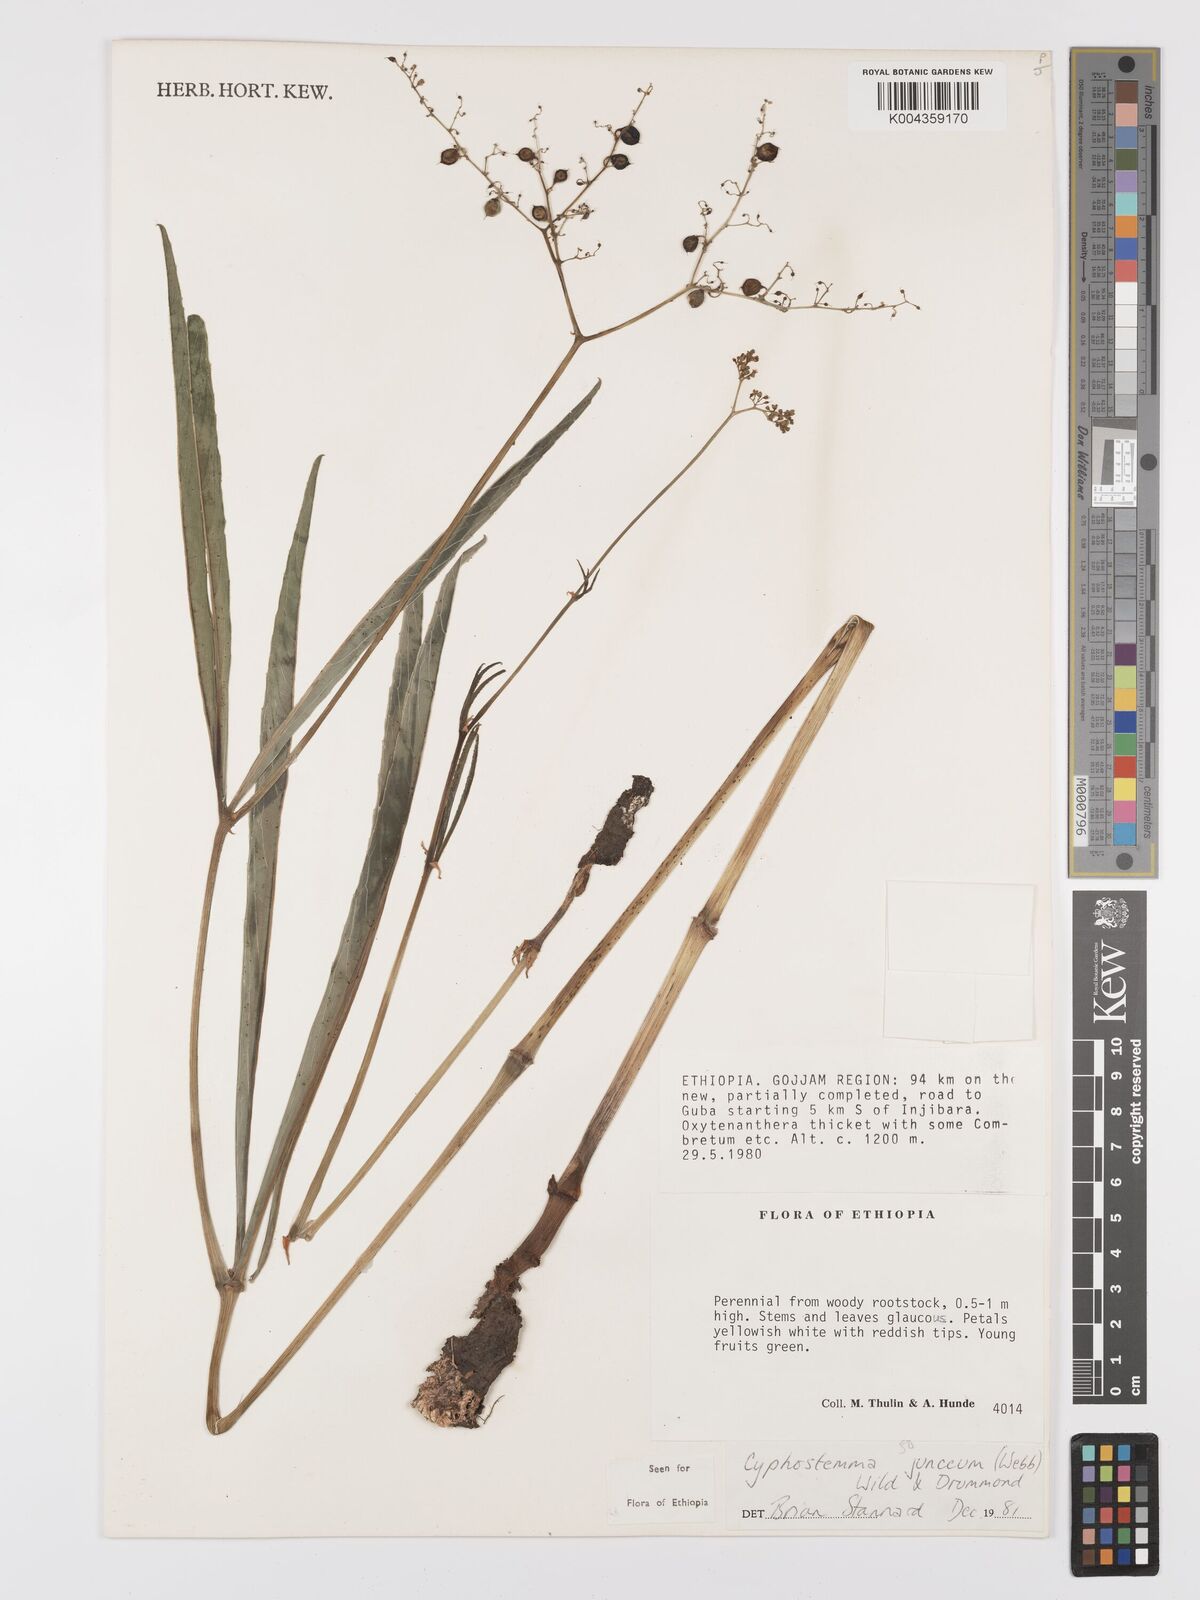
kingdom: Plantae
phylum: Tracheophyta
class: Magnoliopsida
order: Vitales
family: Vitaceae
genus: Cyphostemma
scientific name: Cyphostemma junceum
